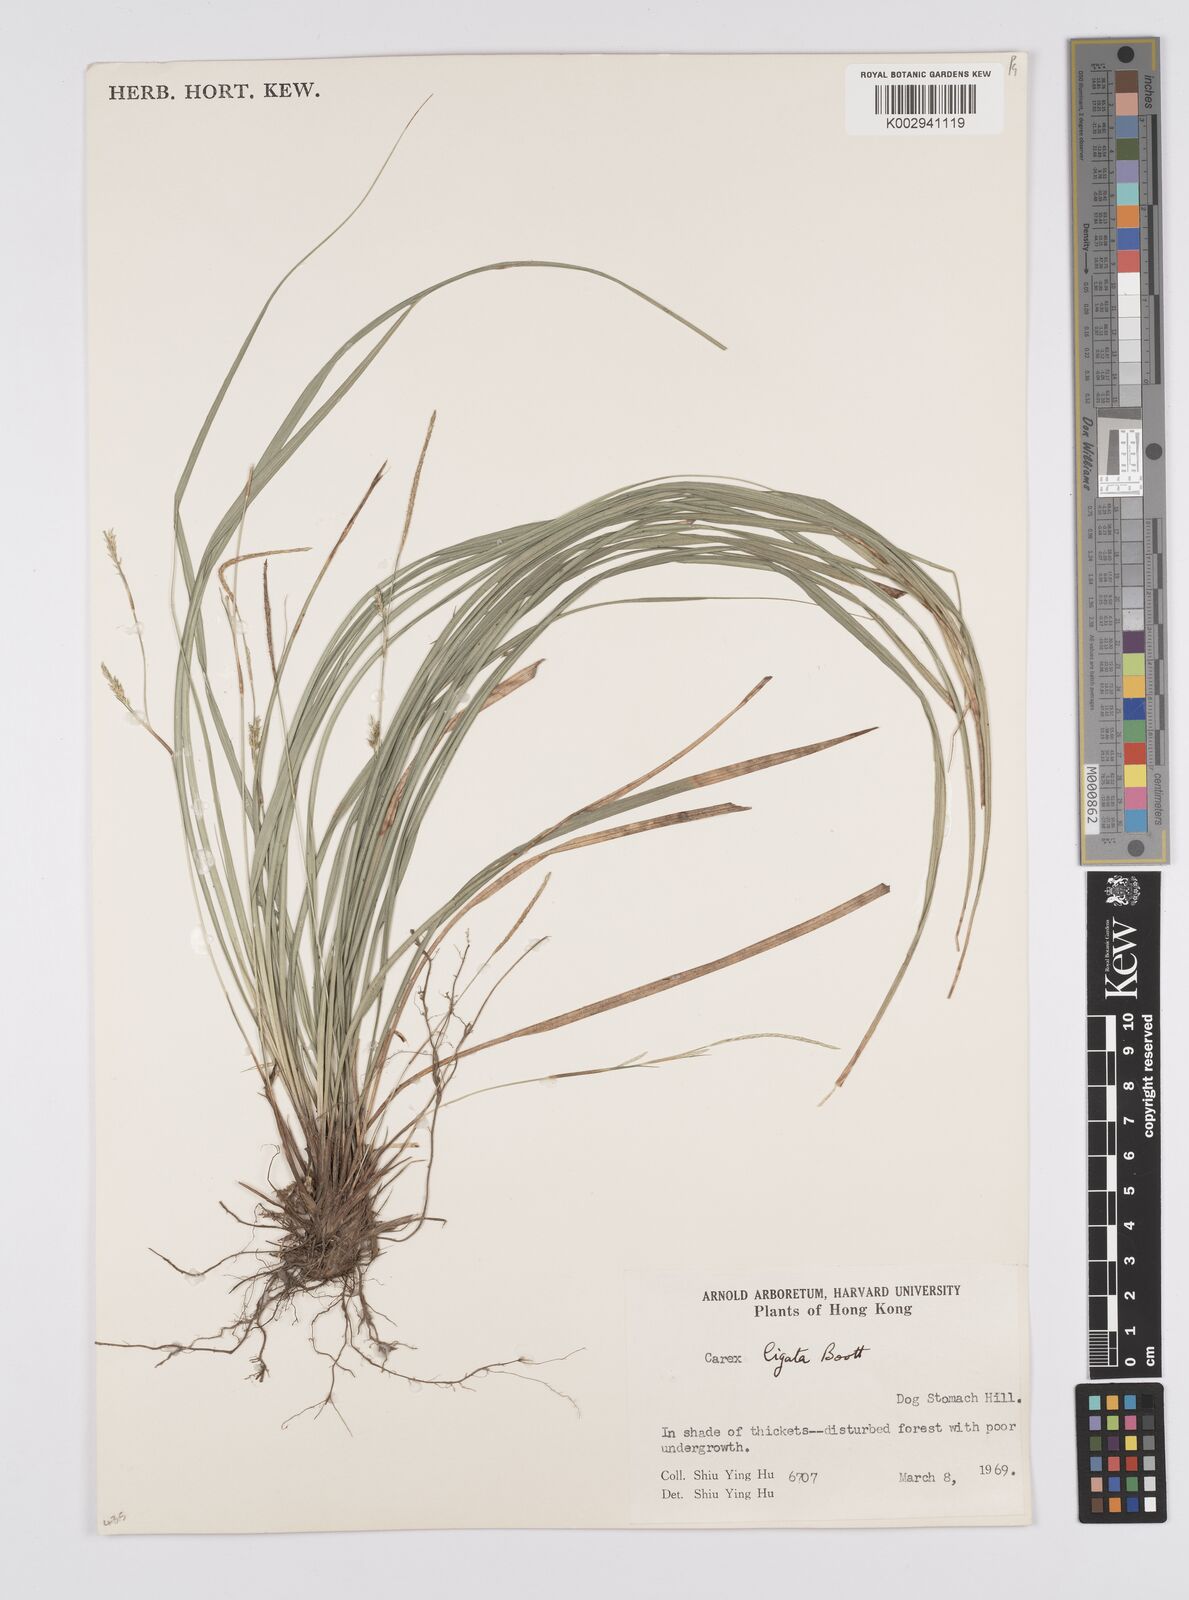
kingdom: Plantae
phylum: Tracheophyta
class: Liliopsida
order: Poales
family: Cyperaceae
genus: Carex
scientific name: Carex ligata
